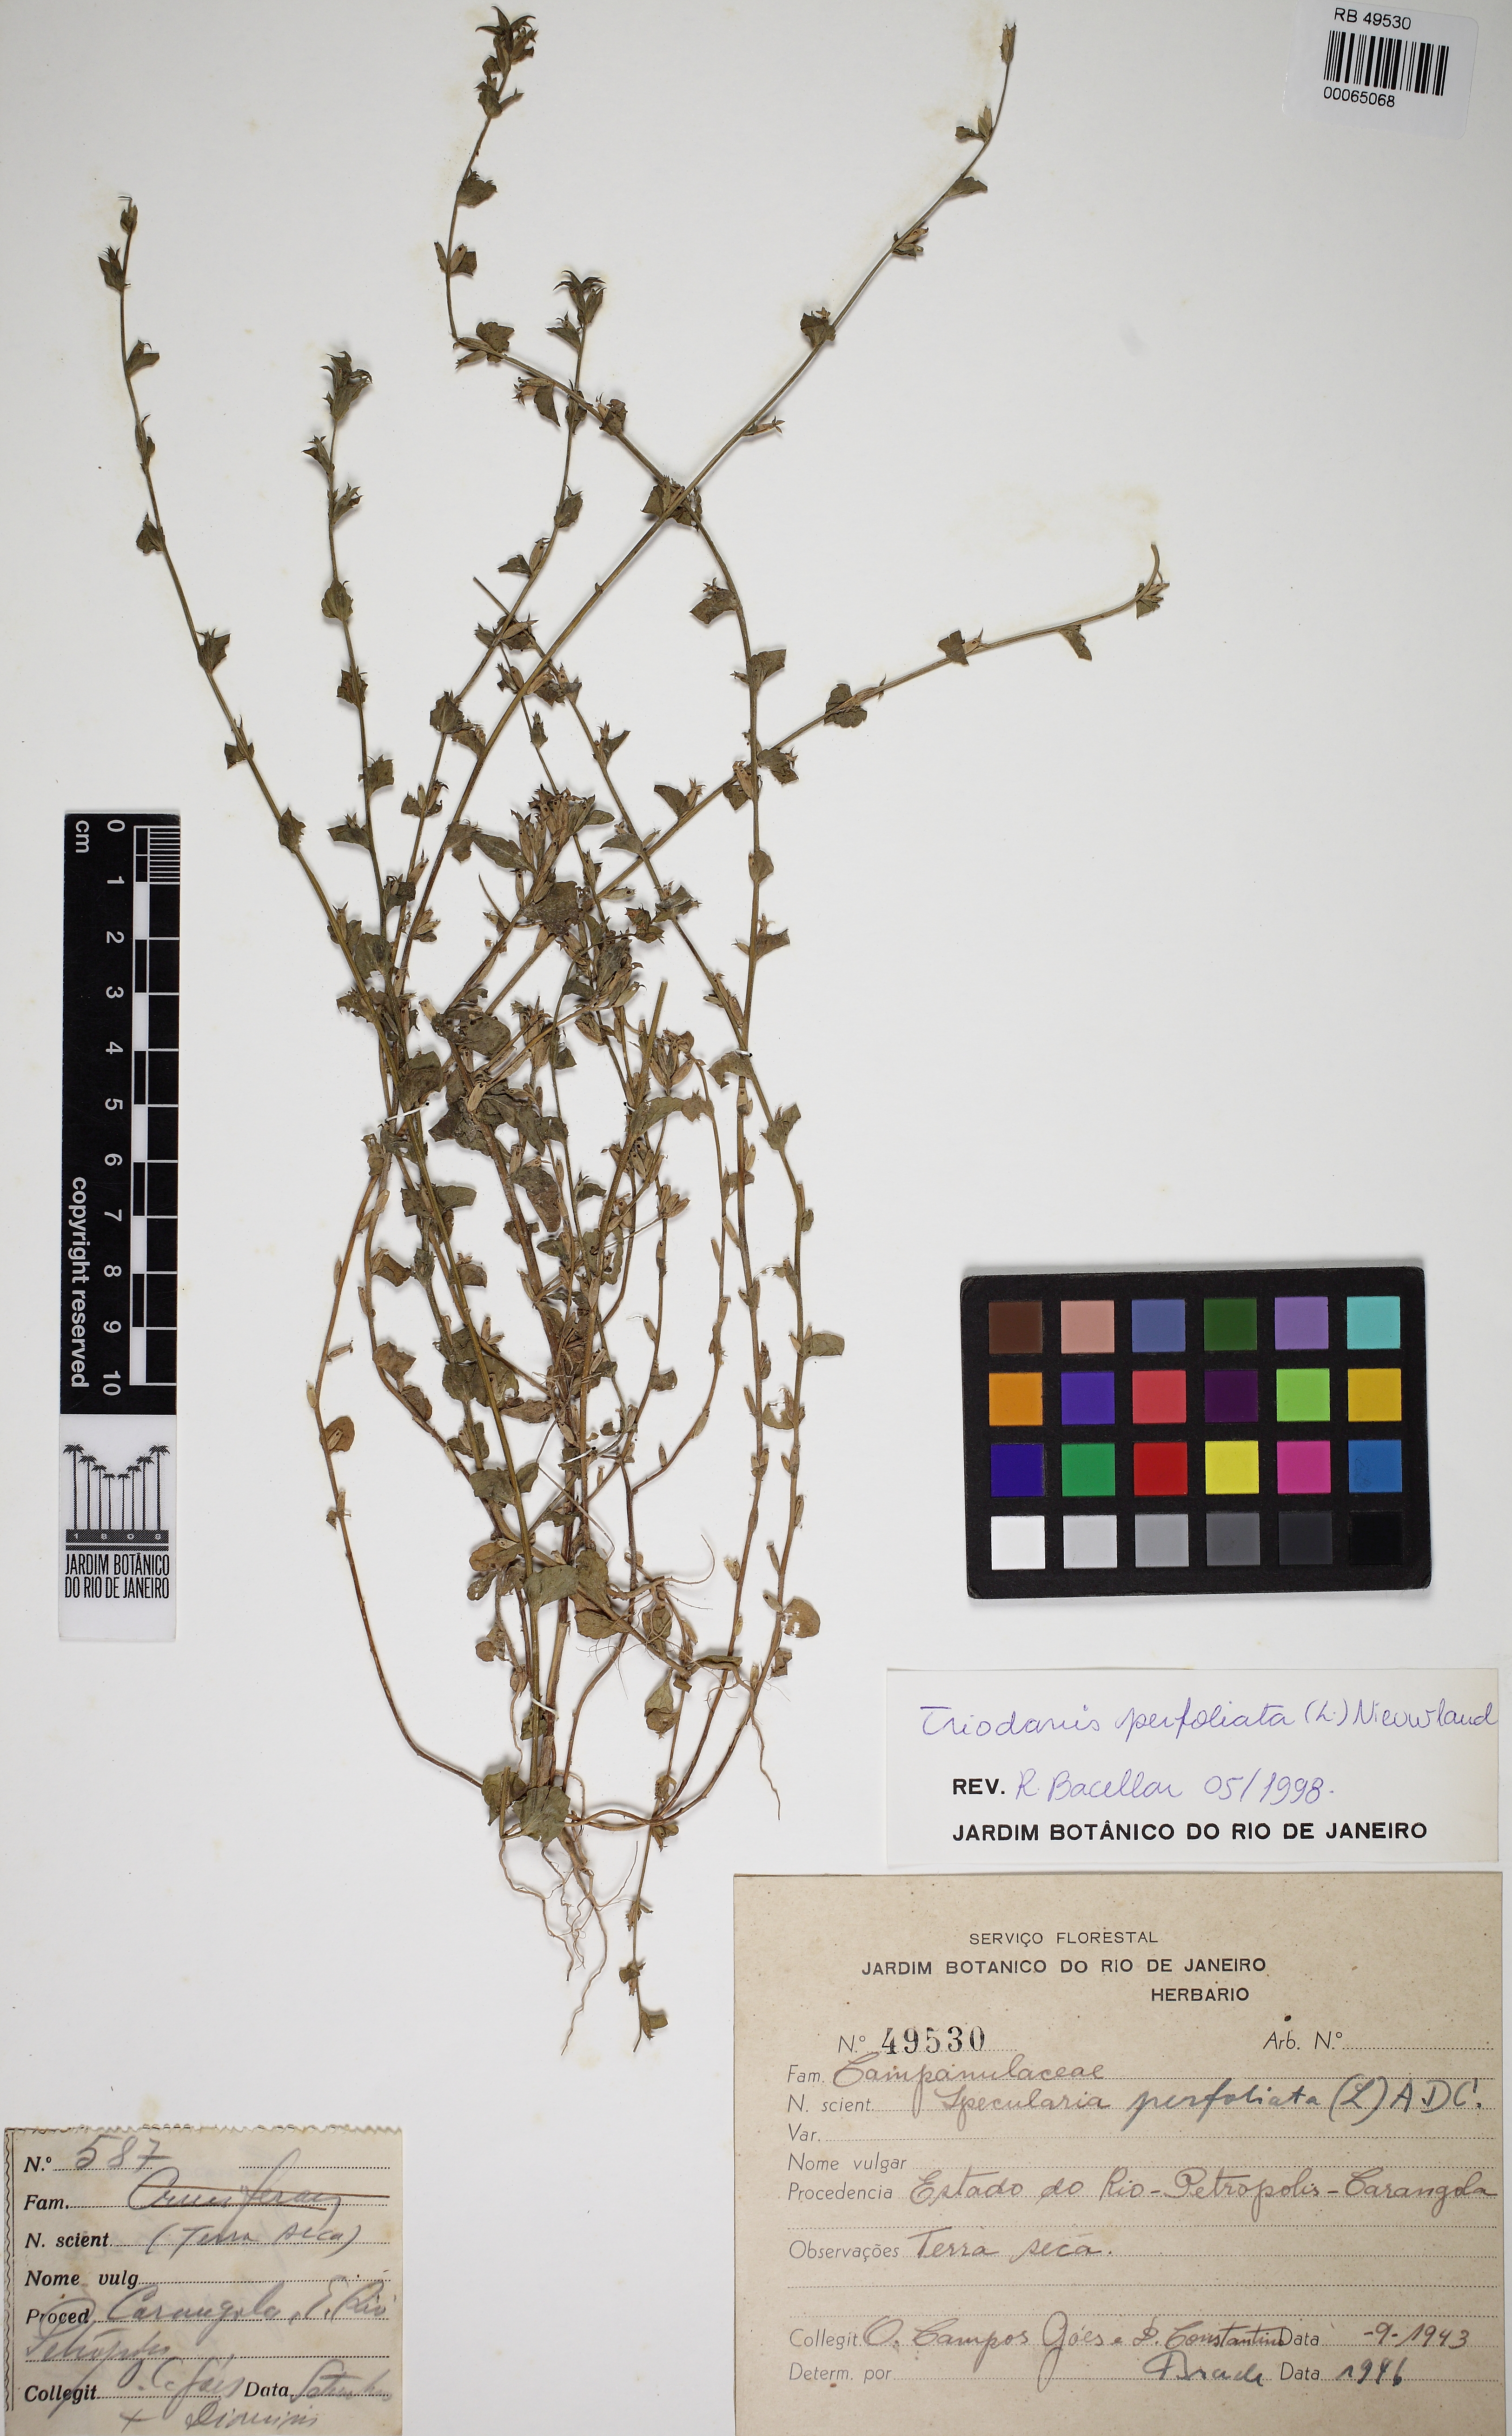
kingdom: Plantae
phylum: Tracheophyta
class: Magnoliopsida
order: Asterales
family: Campanulaceae
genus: Triodanis
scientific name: Triodanis perfoliata
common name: Clasping venus' looking-glass
